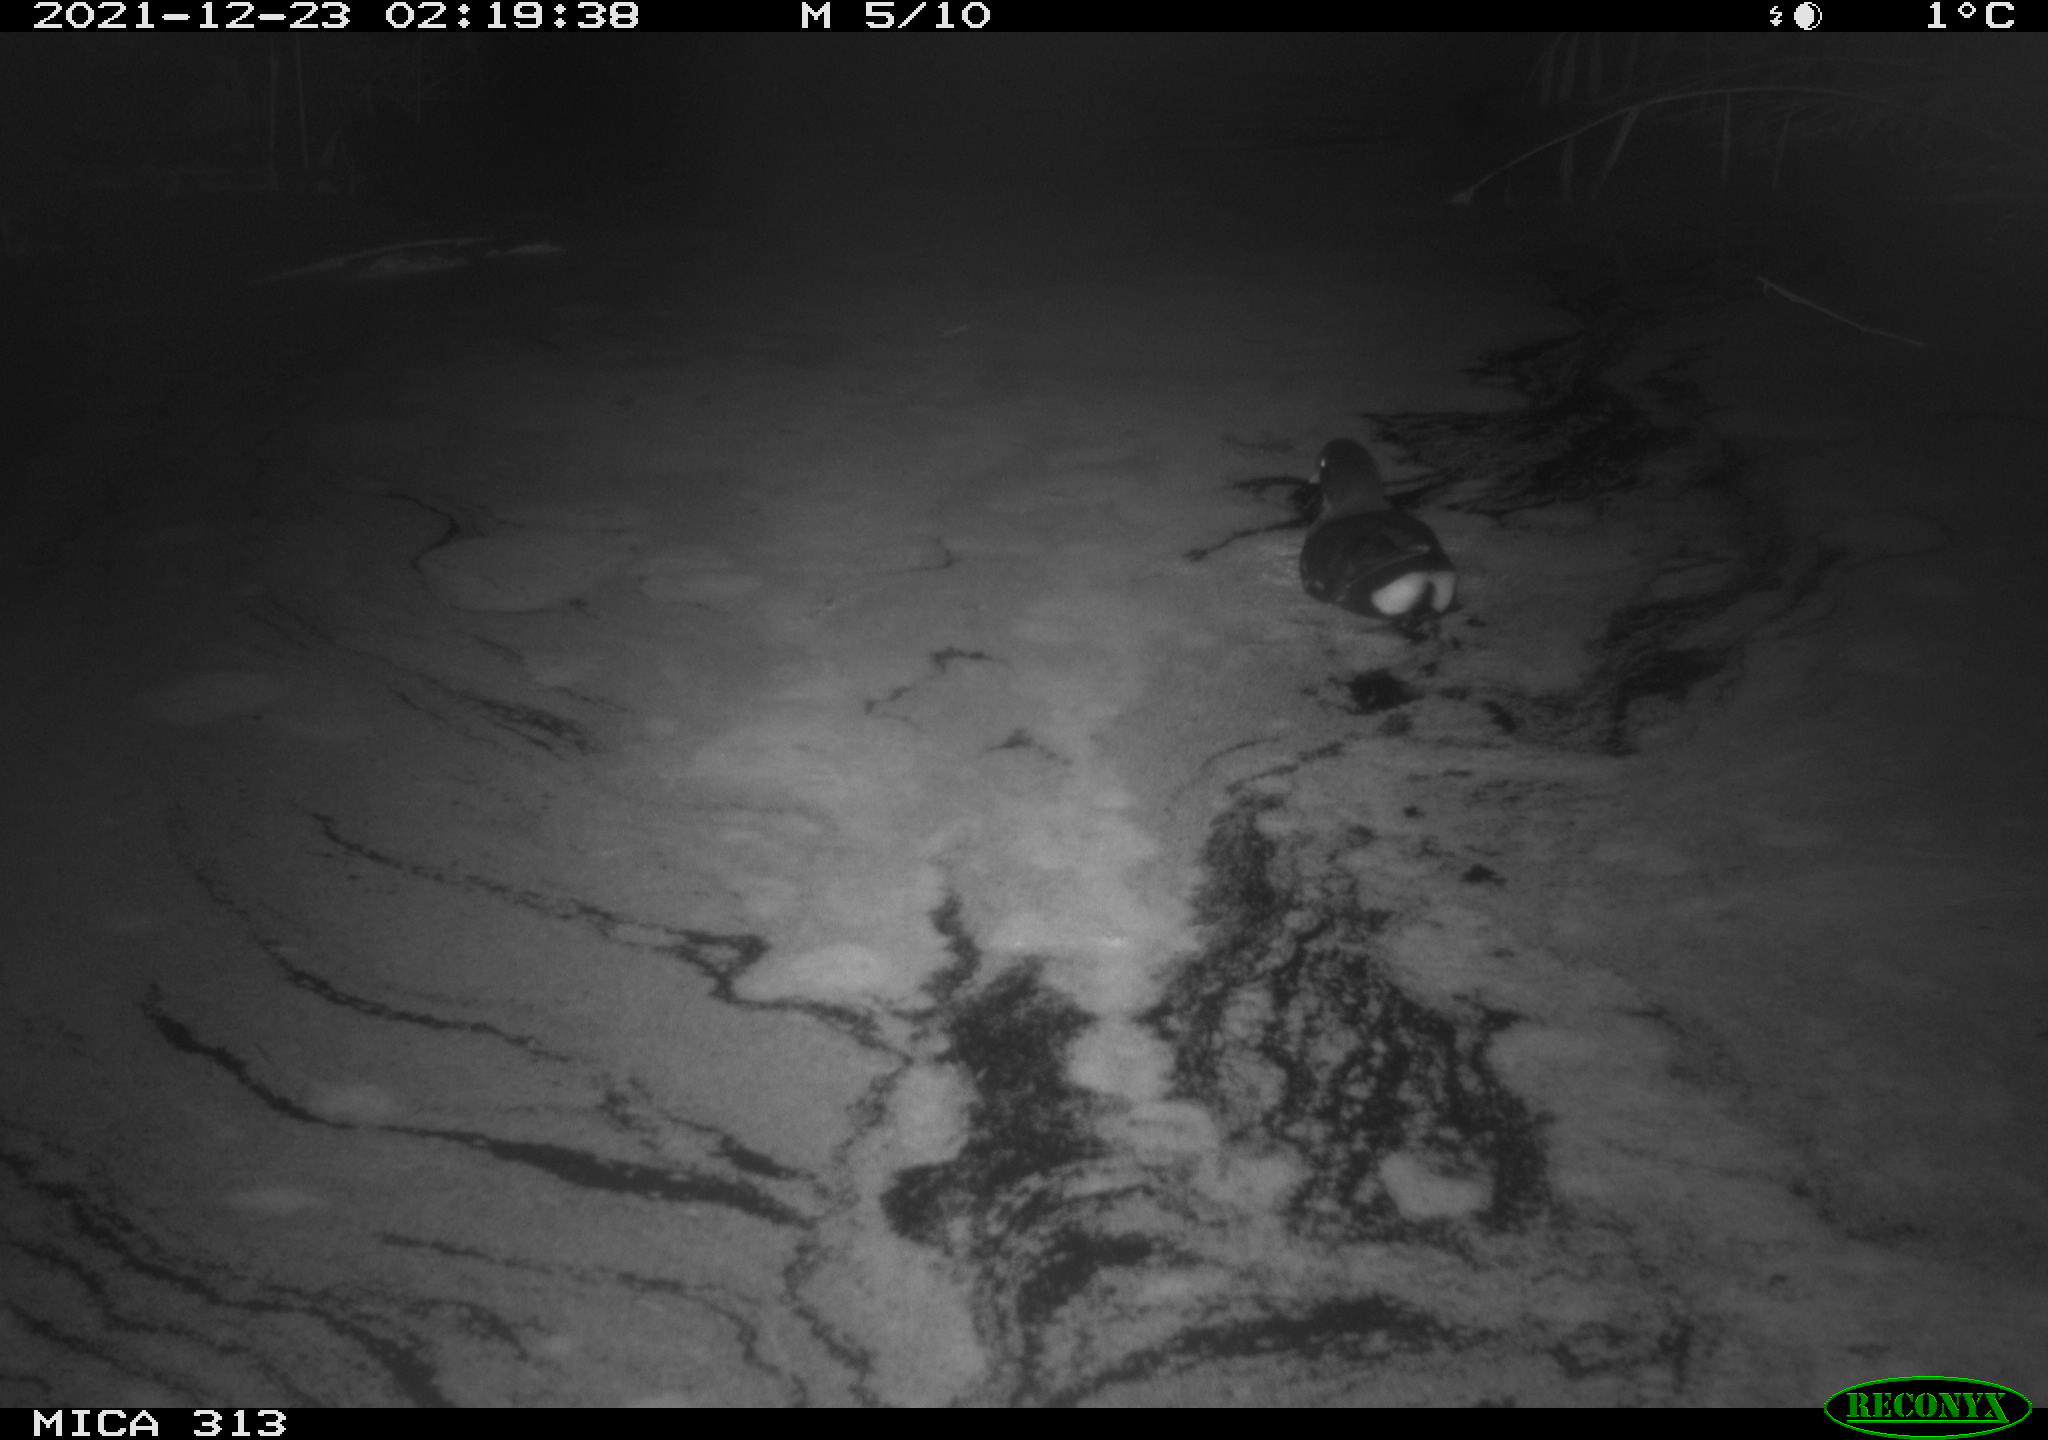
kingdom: Animalia
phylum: Chordata
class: Aves
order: Gruiformes
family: Rallidae
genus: Gallinula
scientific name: Gallinula chloropus
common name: Common moorhen
